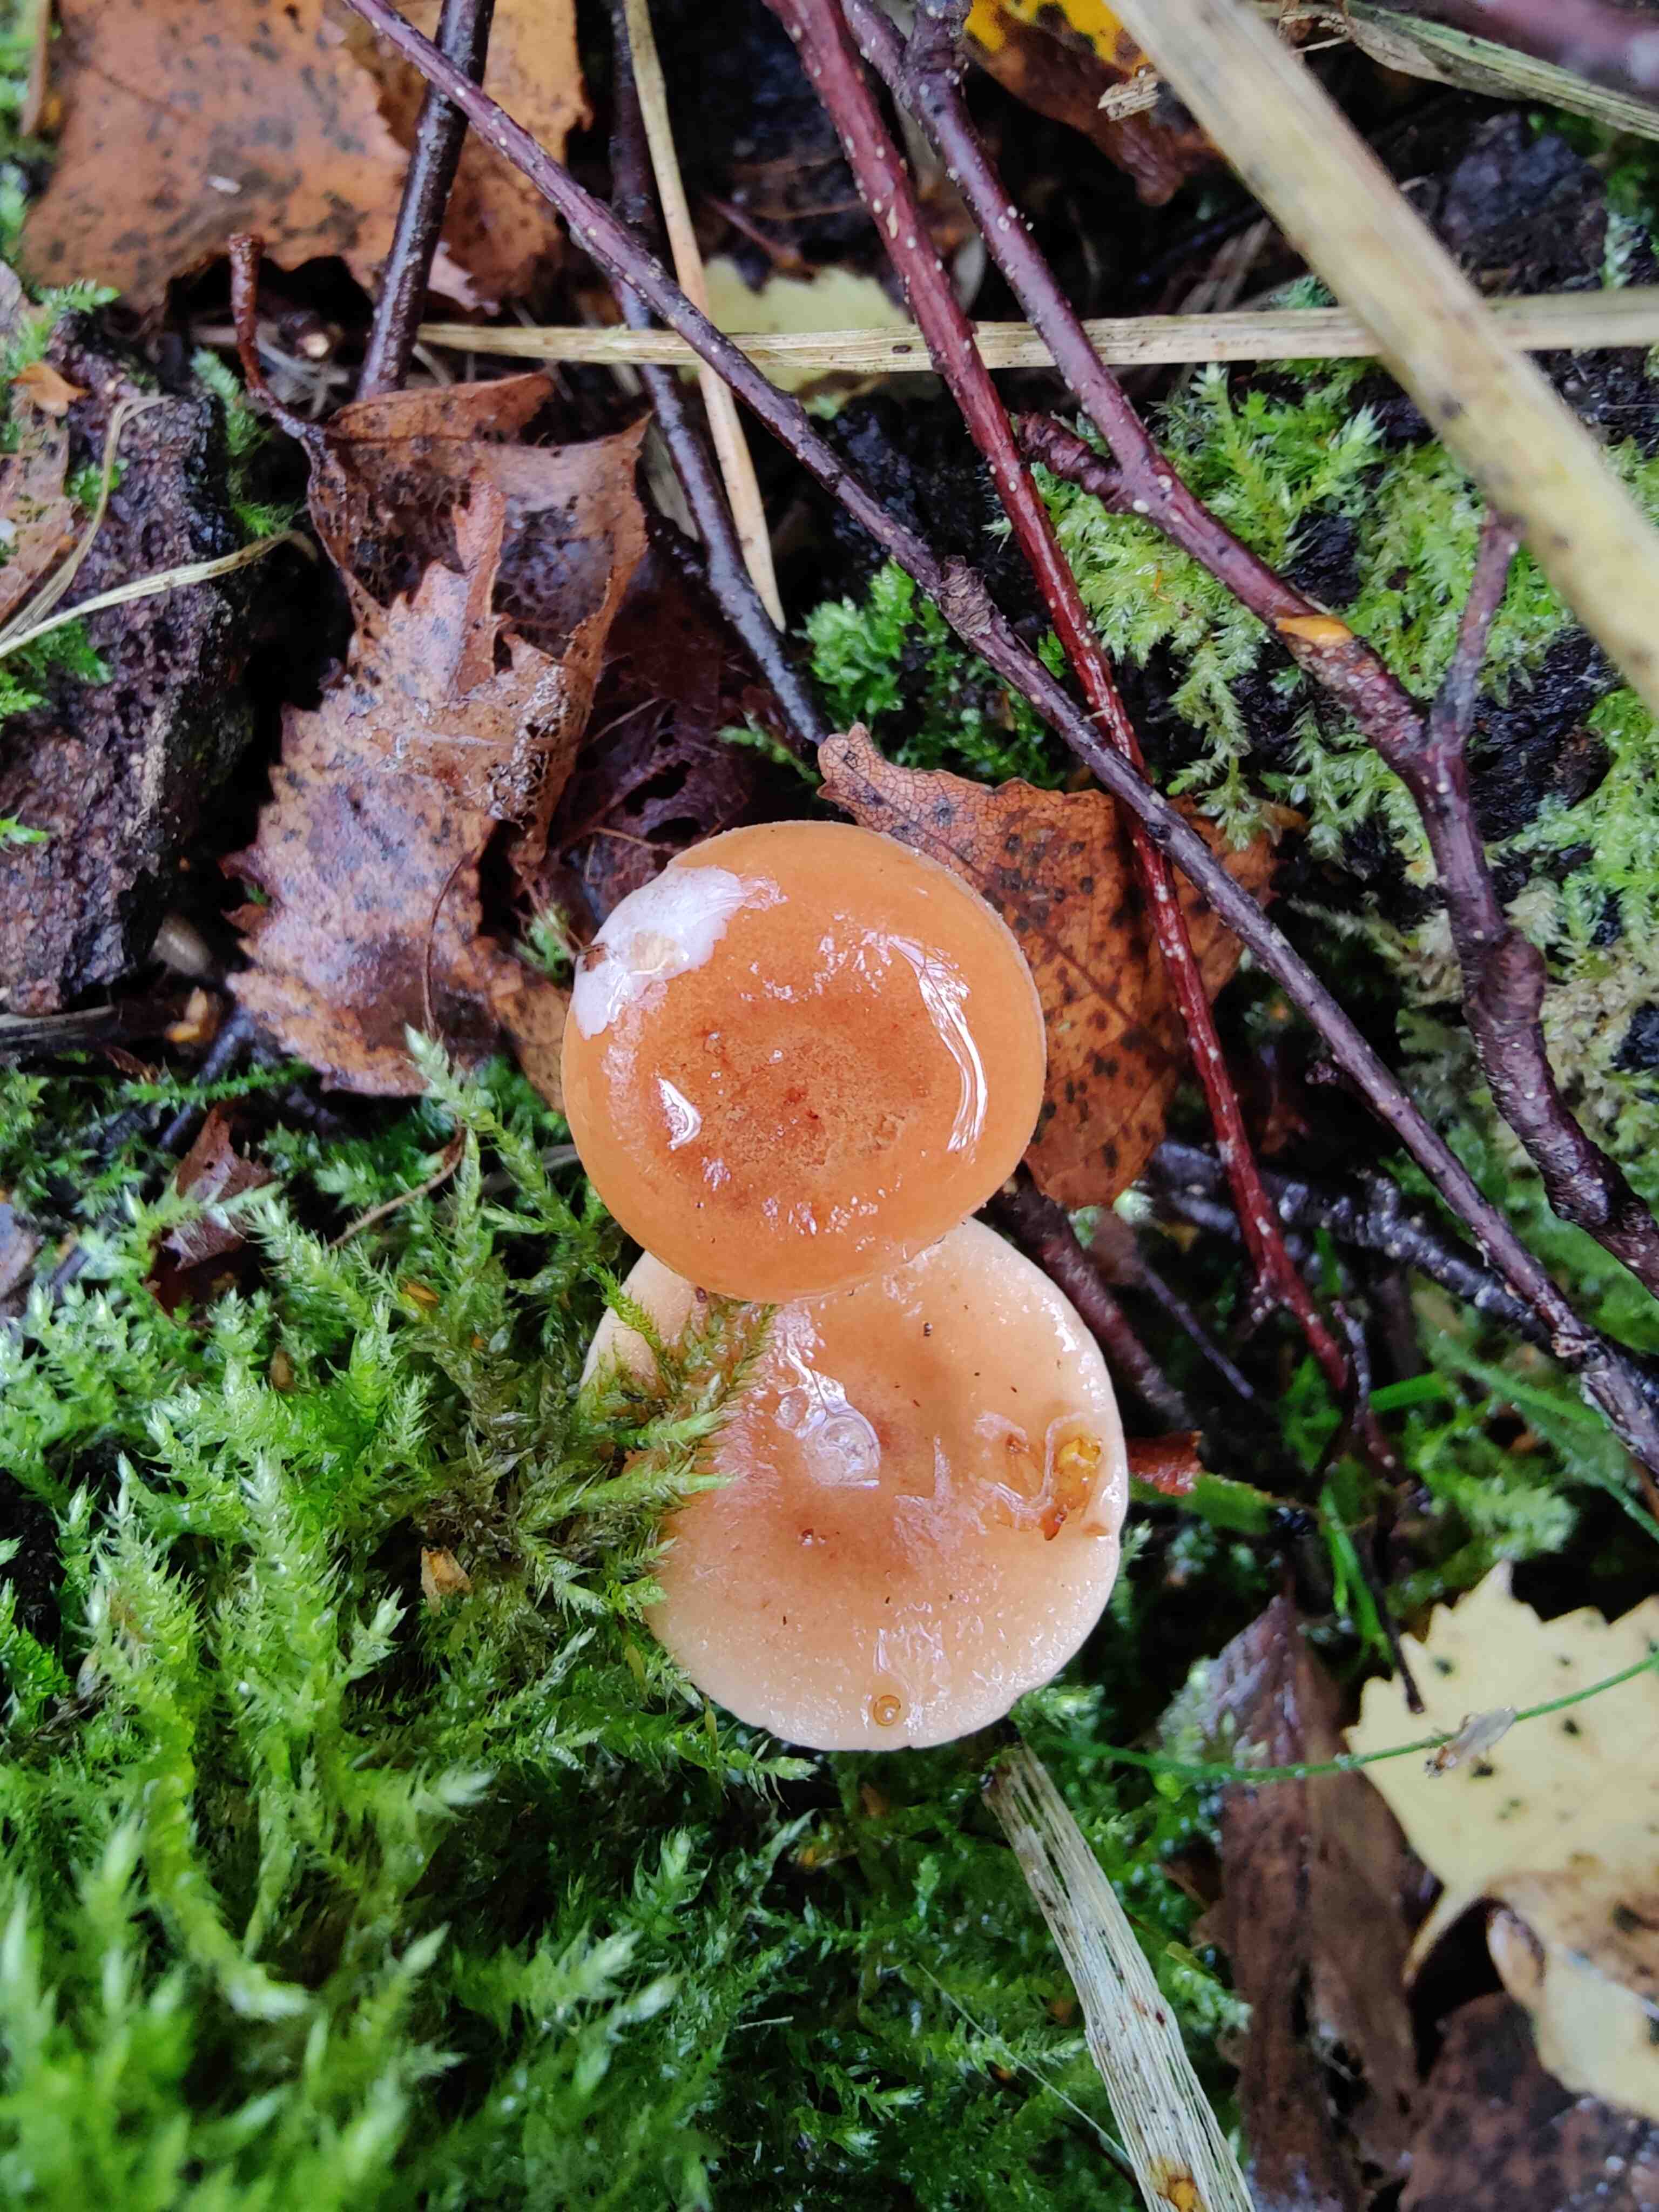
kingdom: Fungi
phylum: Basidiomycota
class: Agaricomycetes
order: Russulales
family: Russulaceae
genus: Lactarius
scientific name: Lactarius tabidus
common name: rynket mælkehat
